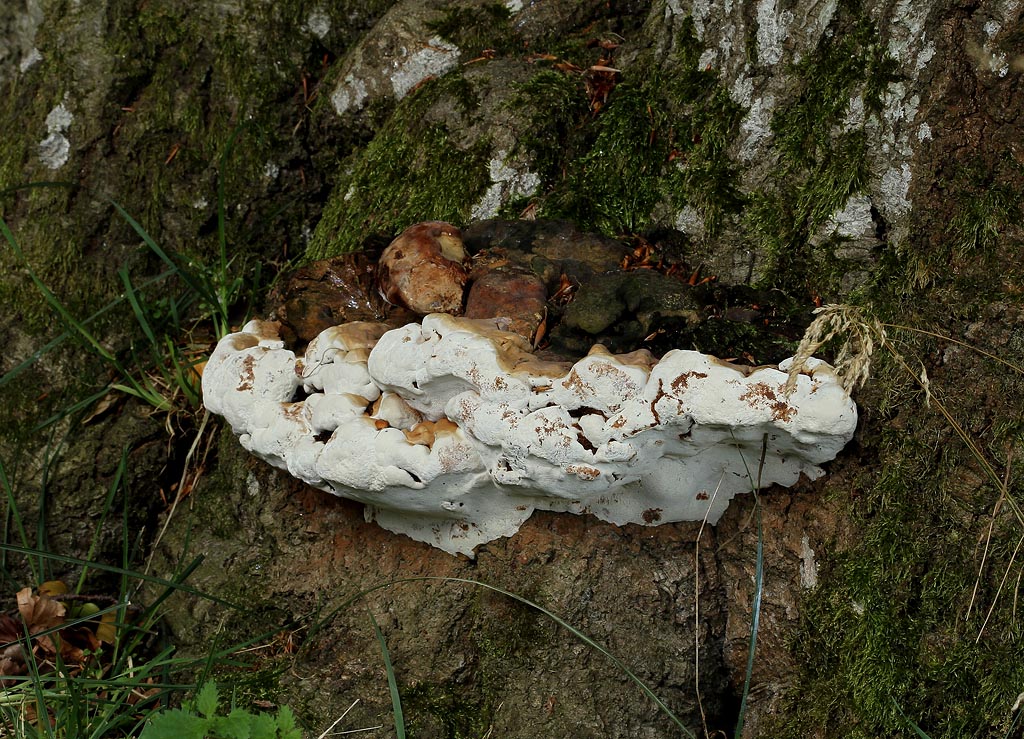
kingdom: Fungi
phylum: Basidiomycota
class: Agaricomycetes
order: Polyporales
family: Polyporaceae
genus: Ganoderma
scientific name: Ganoderma pfeifferi
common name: kobberrød lakporesvamp
